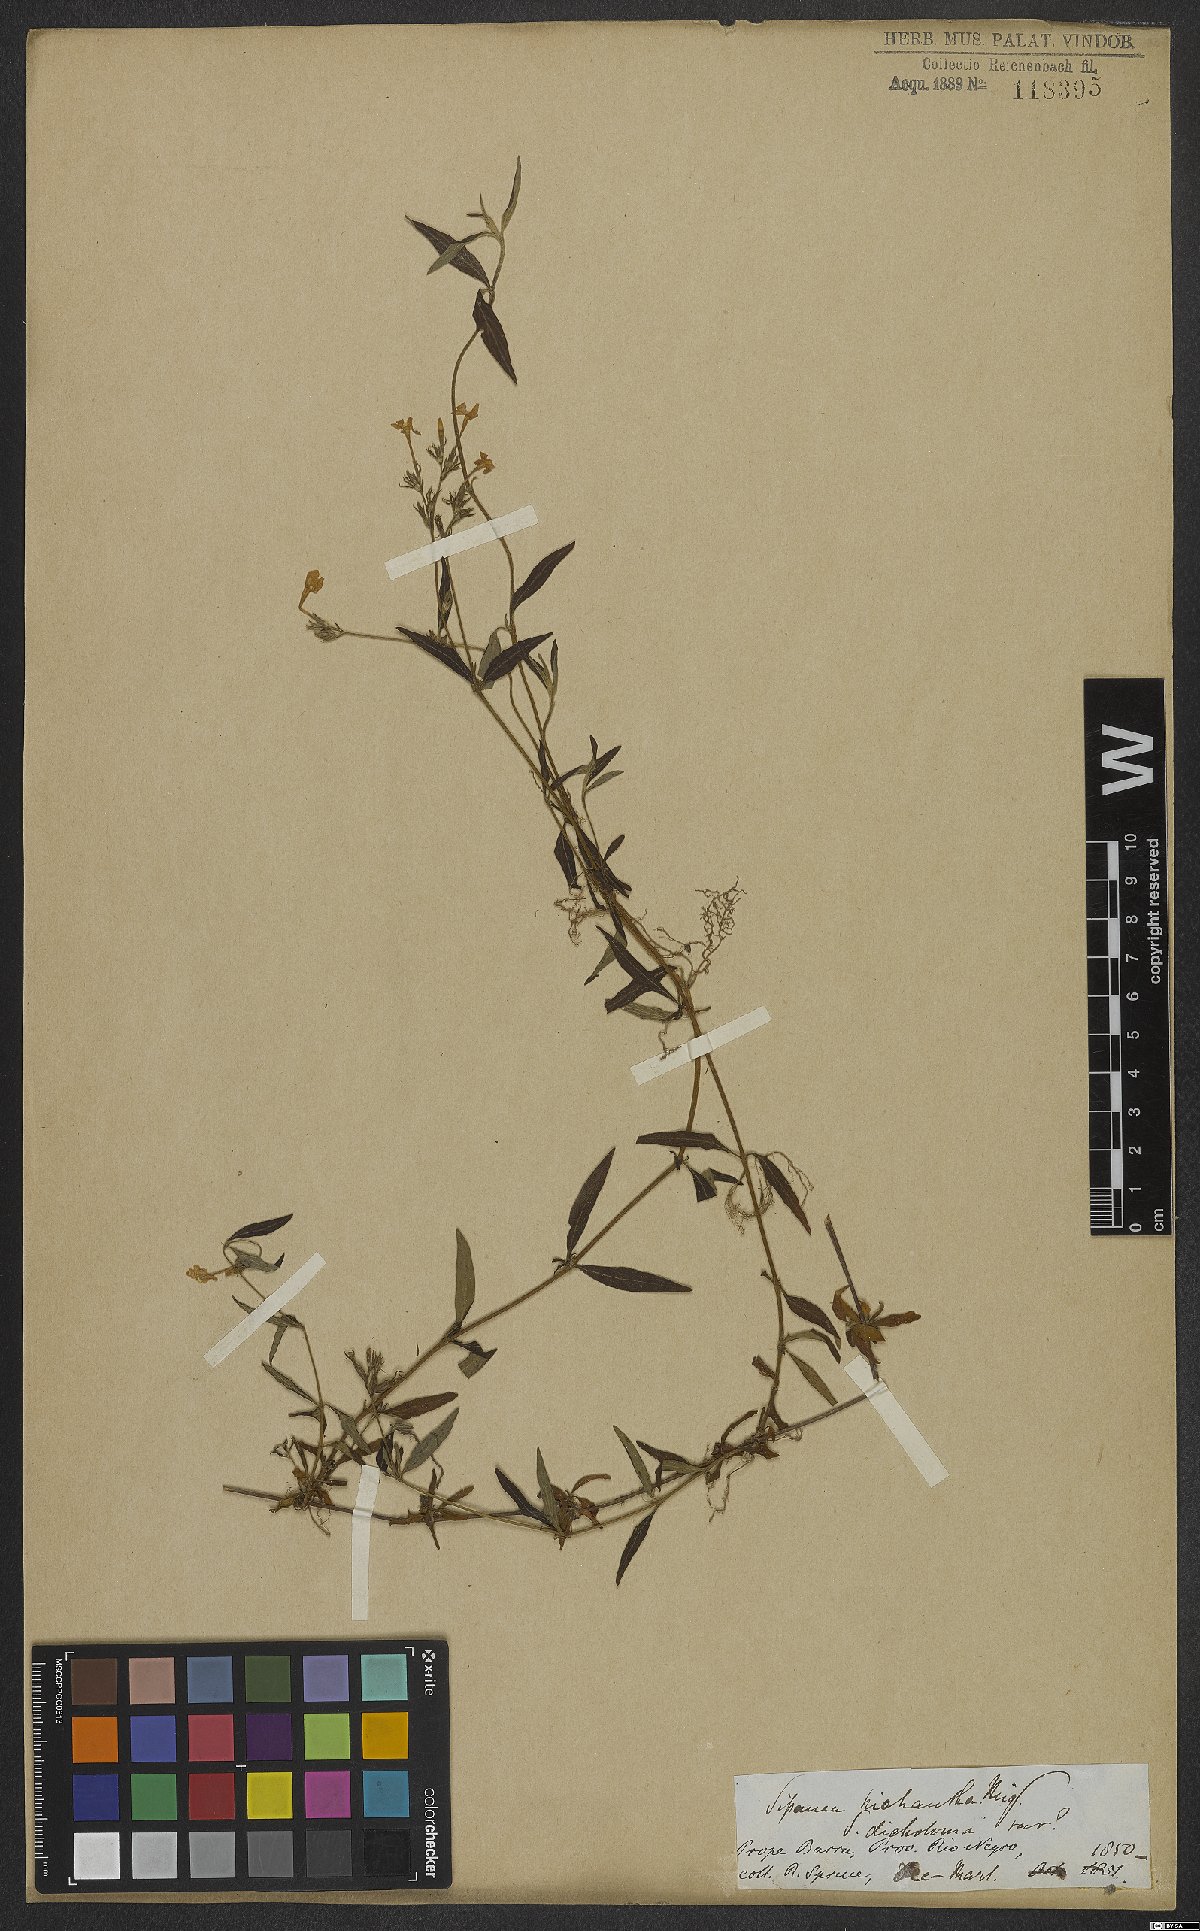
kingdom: Plantae
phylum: Tracheophyta
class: Magnoliopsida
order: Gentianales
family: Rubiaceae
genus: Sipanea
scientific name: Sipanea pratensis
